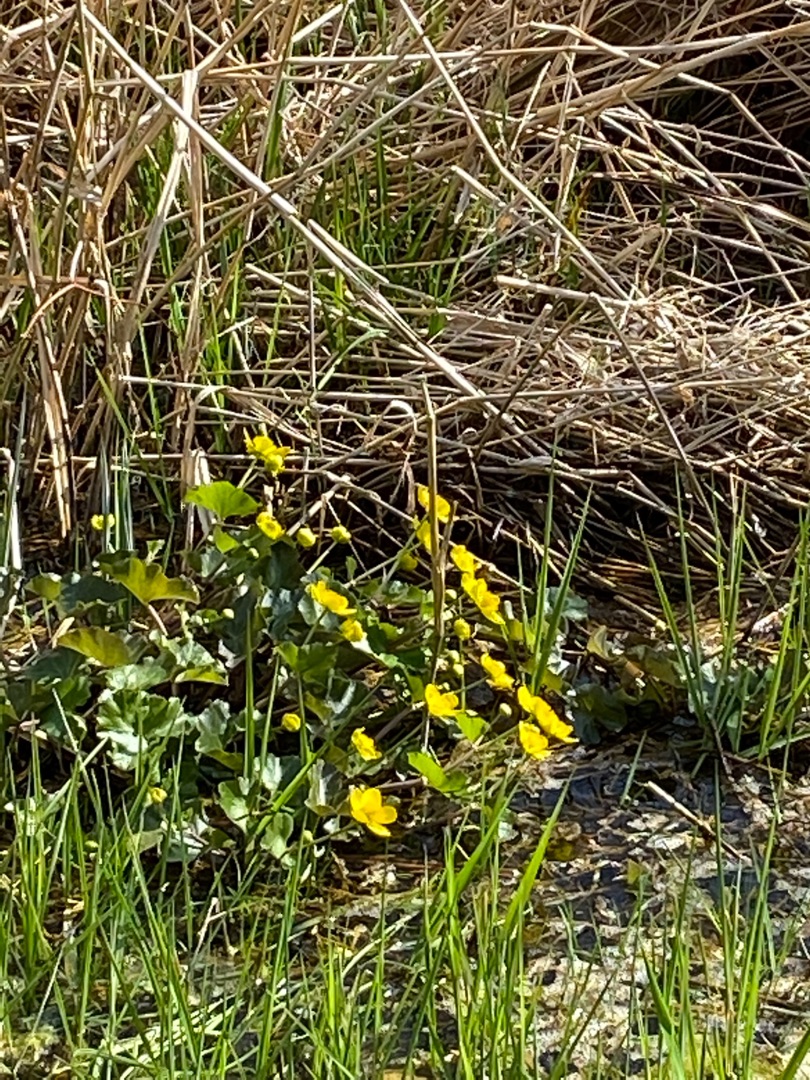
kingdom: Plantae
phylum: Tracheophyta
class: Magnoliopsida
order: Ranunculales
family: Ranunculaceae
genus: Caltha
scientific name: Caltha palustris
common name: Eng-kabbeleje
